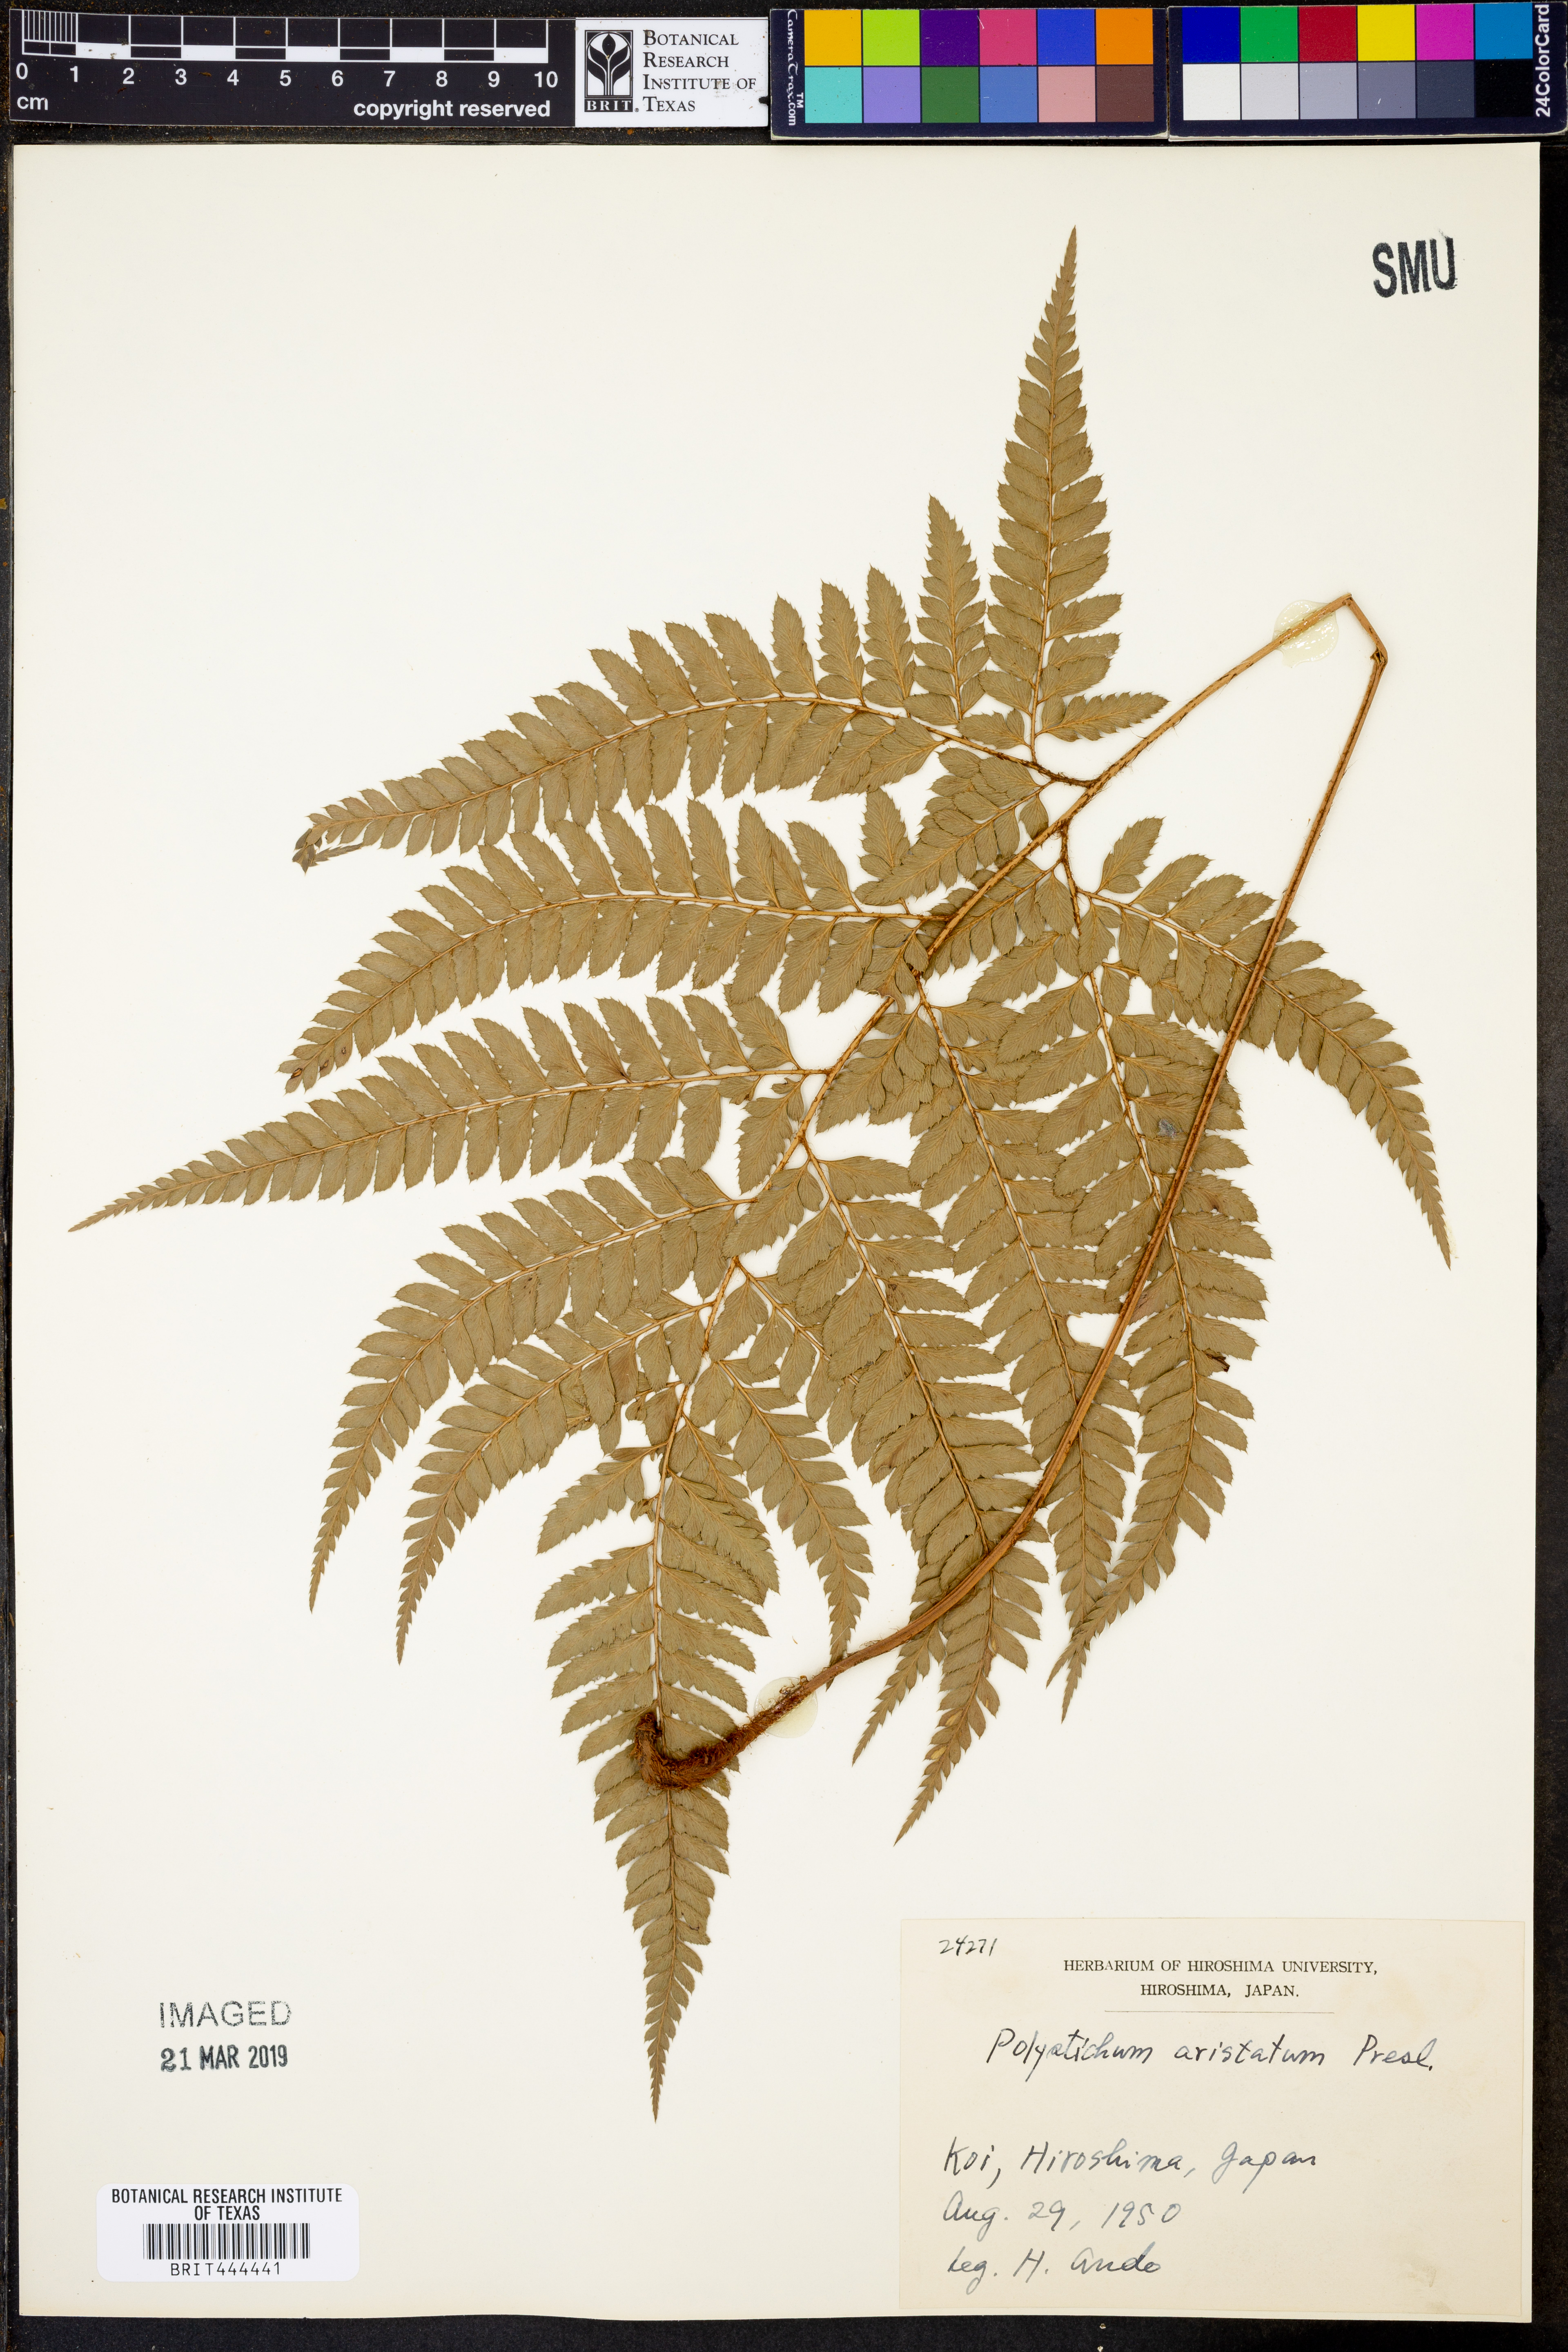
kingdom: Plantae
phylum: Tracheophyta
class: Polypodiopsida
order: Polypodiales
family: Dryopteridaceae
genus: Polystichum
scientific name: Polystichum aristatum
